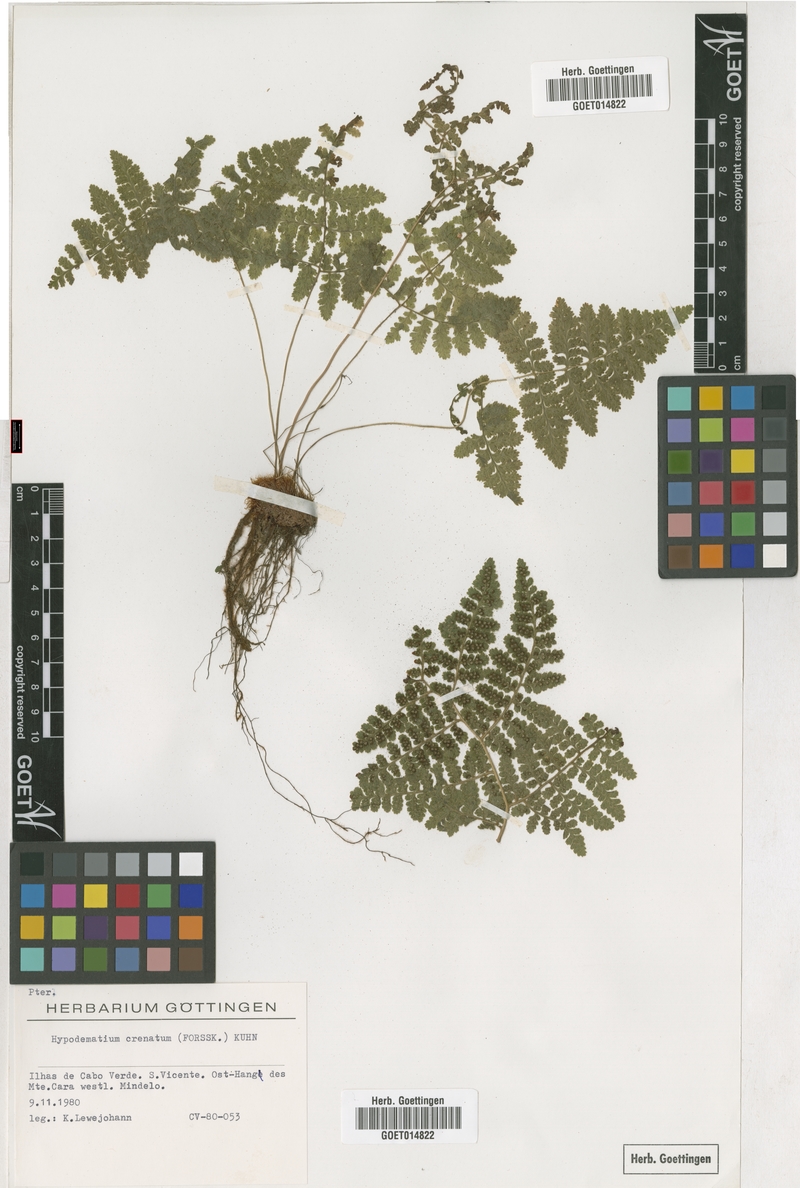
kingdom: Plantae
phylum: Tracheophyta
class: Polypodiopsida
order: Polypodiales
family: Hypodematiaceae
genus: Hypodematium
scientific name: Hypodematium chrysolepis
